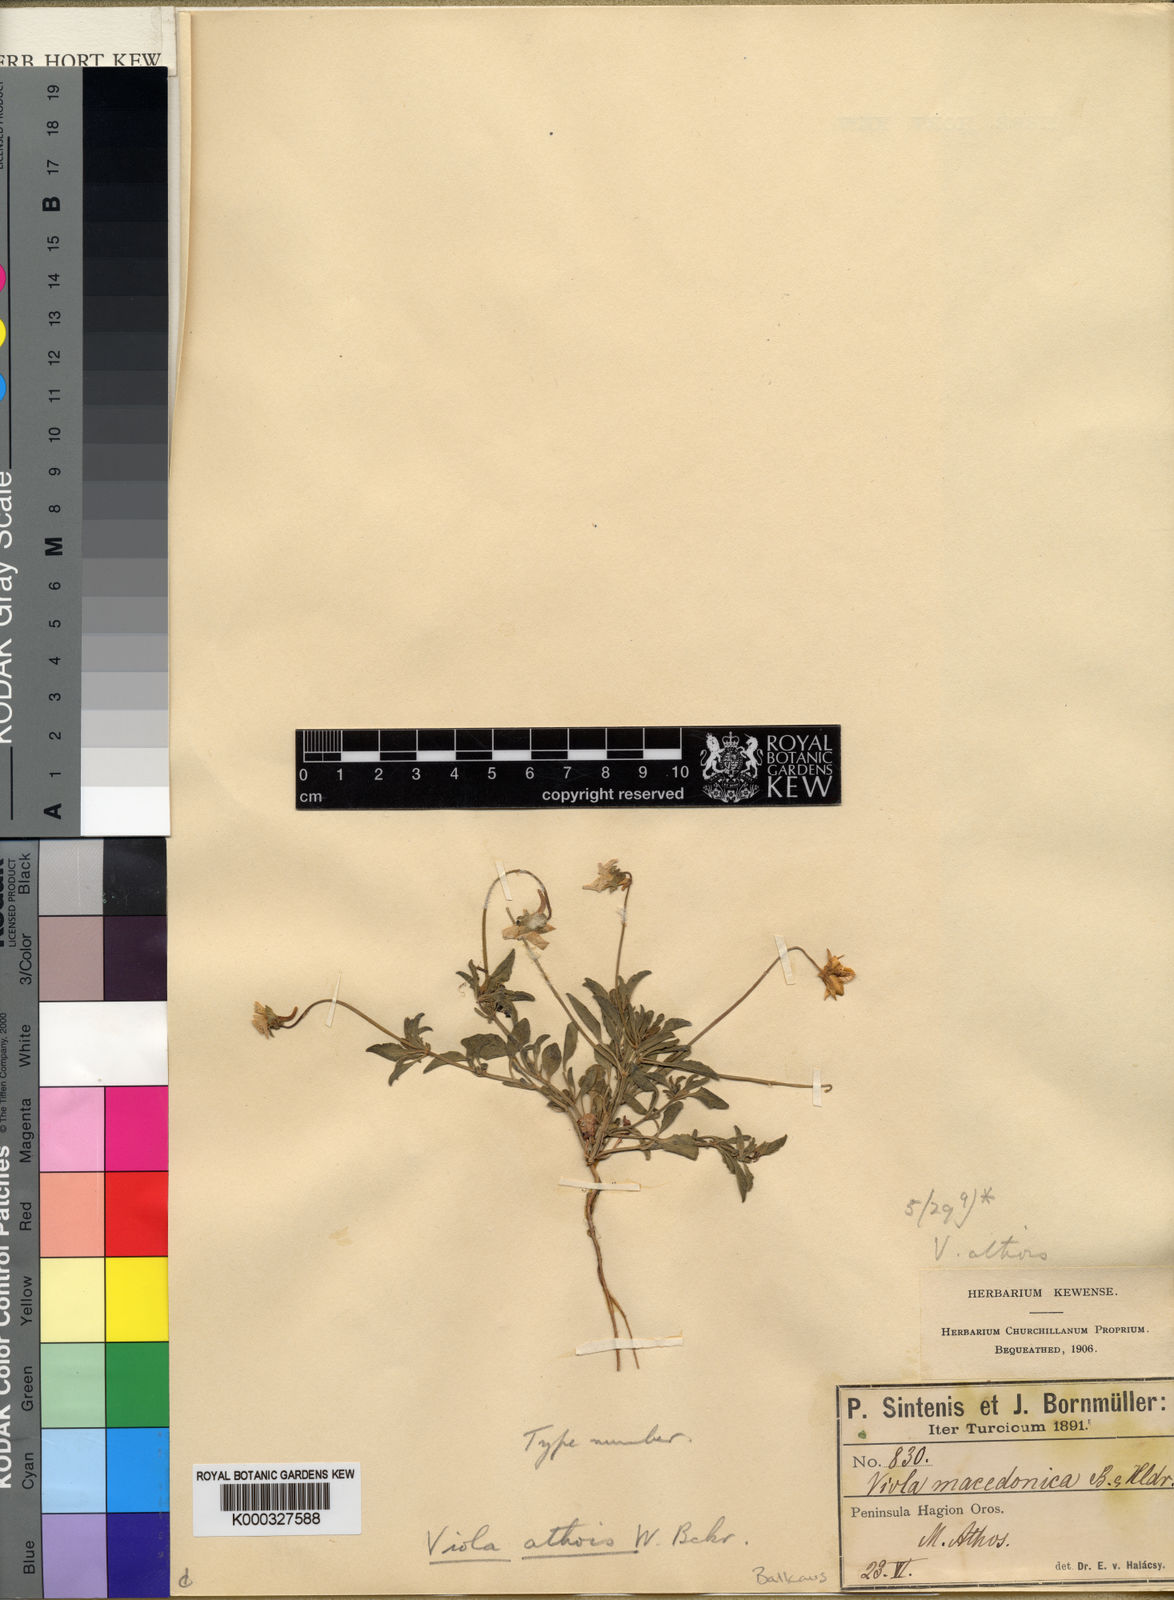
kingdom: Plantae
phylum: Tracheophyta
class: Magnoliopsida
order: Malpighiales
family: Violaceae
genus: Viola
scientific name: Viola athois
